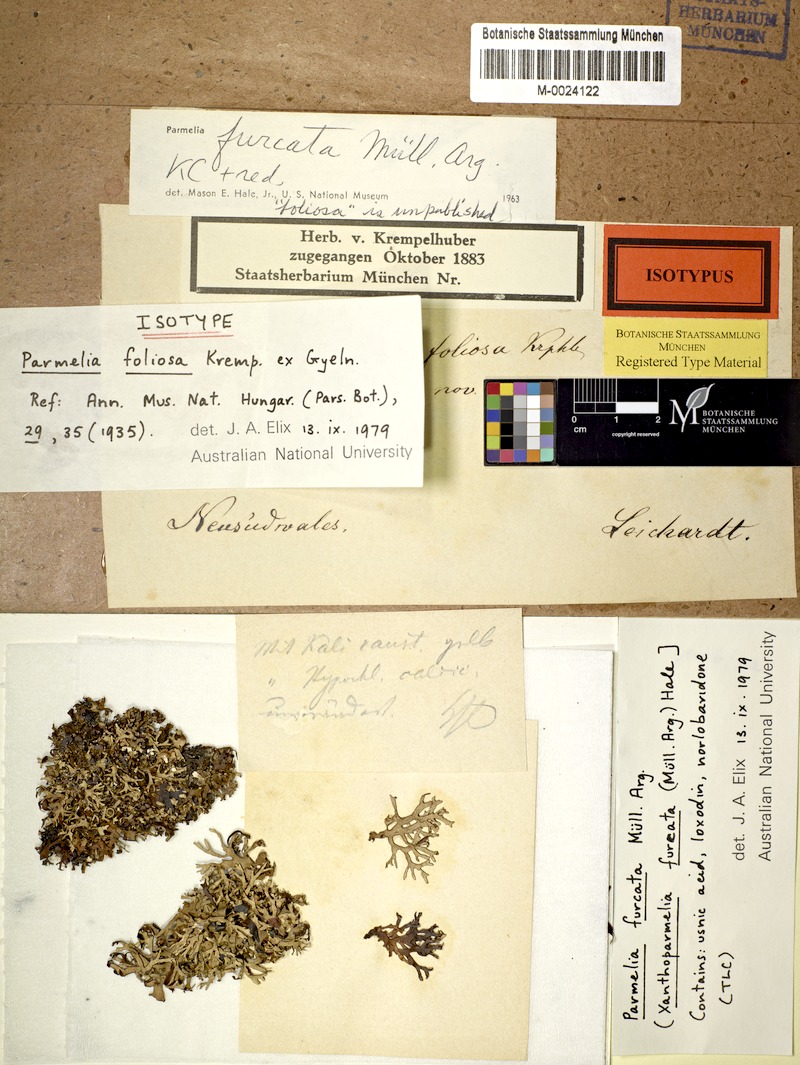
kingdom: Fungi
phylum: Ascomycota
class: Lecanoromycetes
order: Lecanorales
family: Parmeliaceae
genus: Xanthoparmelia
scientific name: Xanthoparmelia furcata
